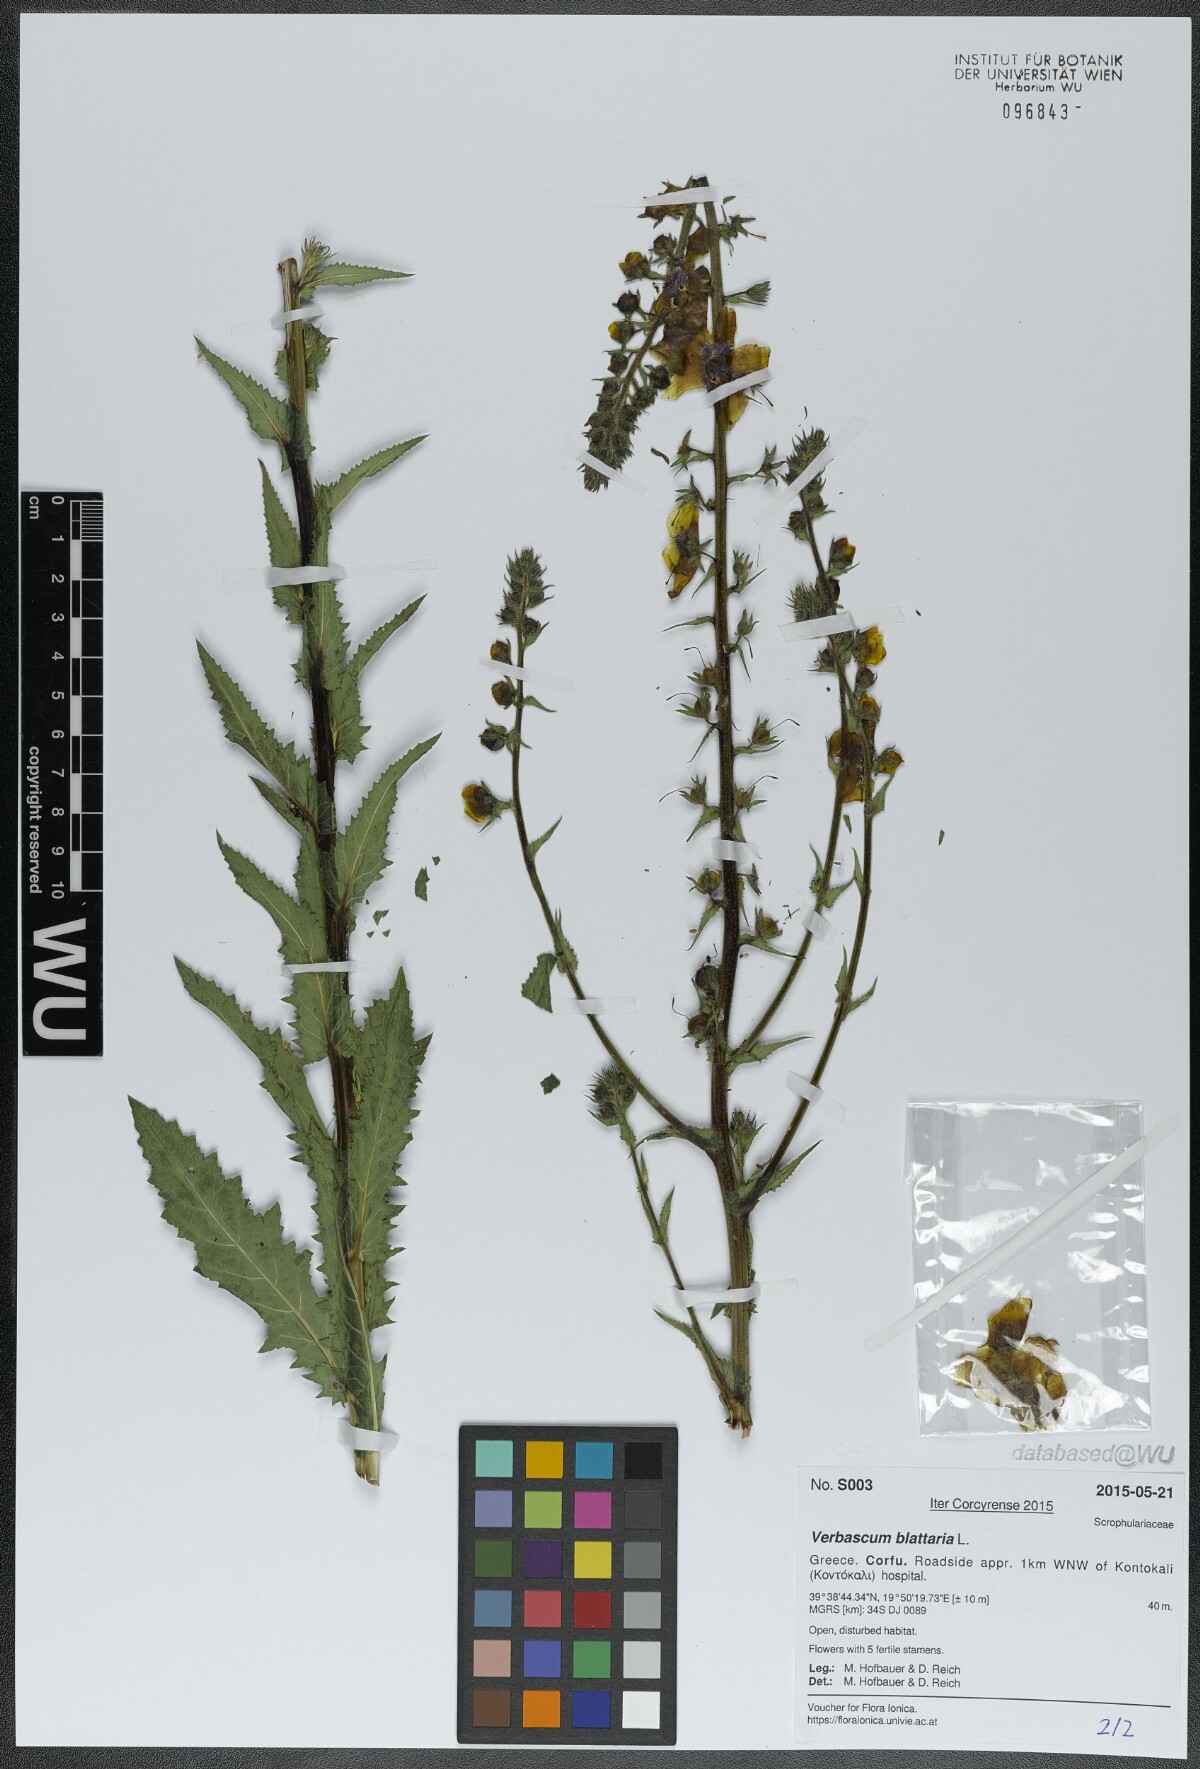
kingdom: Plantae
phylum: Tracheophyta
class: Magnoliopsida
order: Lamiales
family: Scrophulariaceae
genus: Verbascum
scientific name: Verbascum blattaria
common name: Moth mullein
